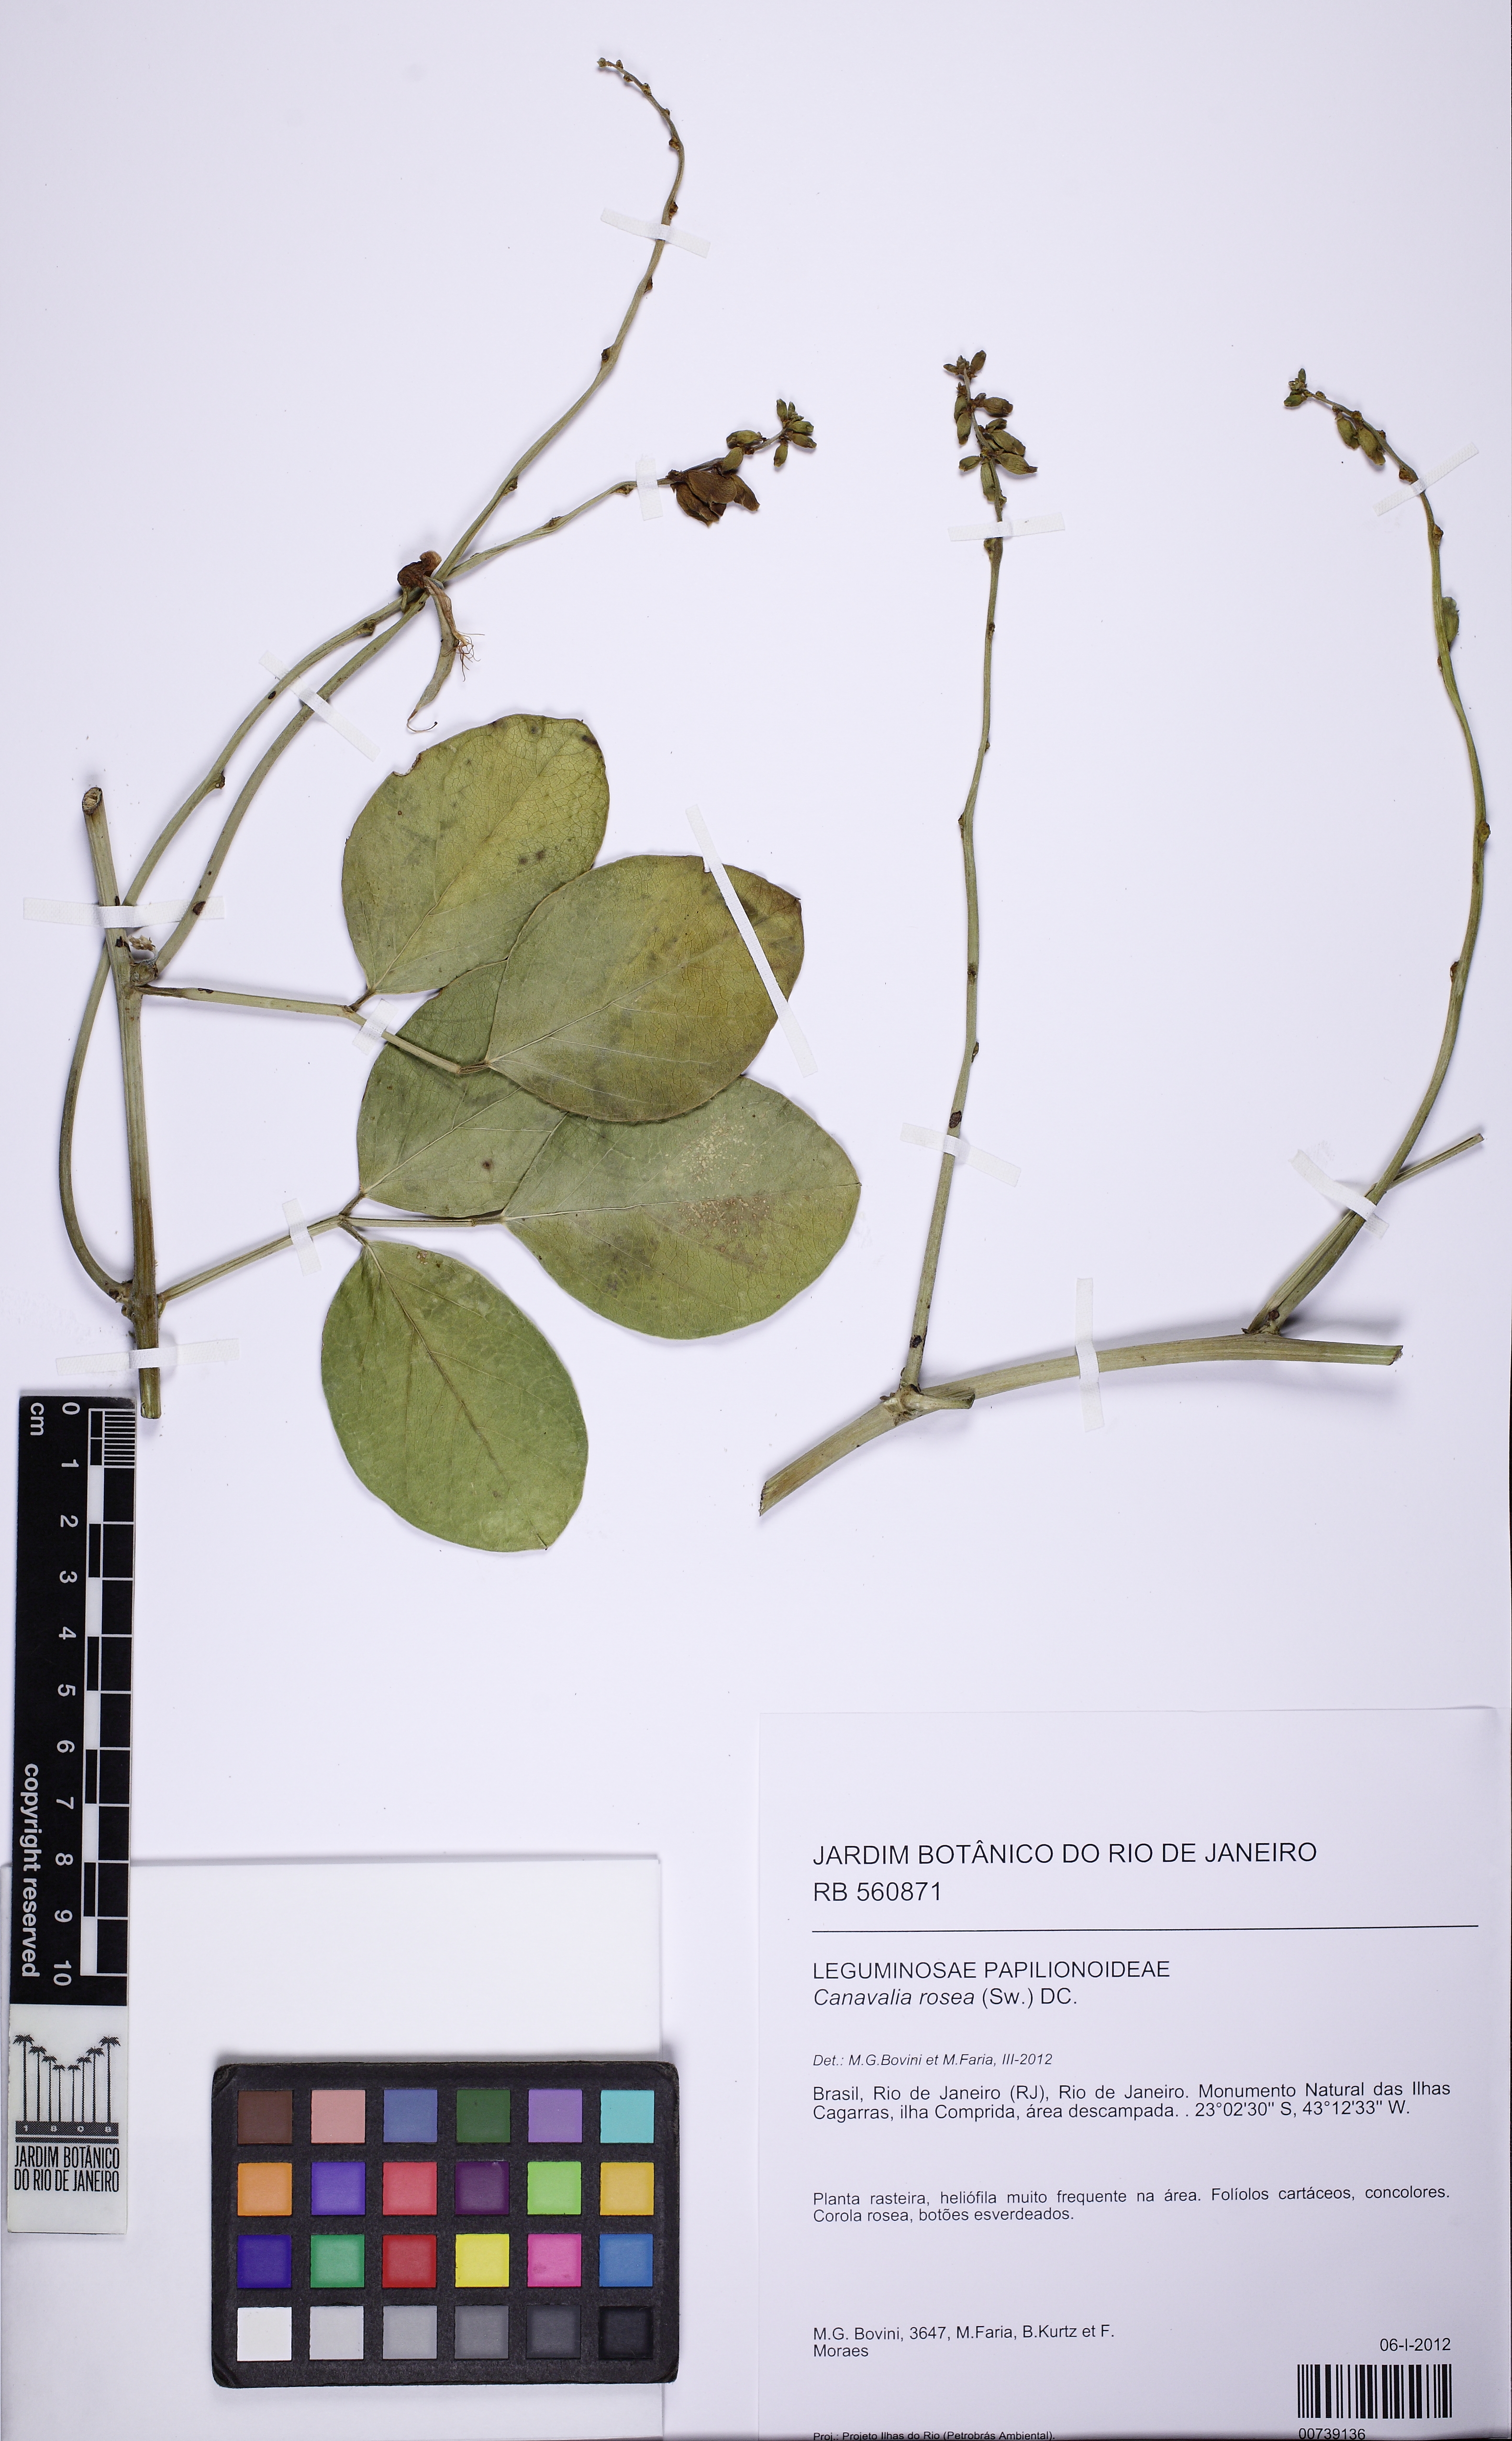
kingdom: Plantae
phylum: Tracheophyta
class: Magnoliopsida
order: Fabales
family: Fabaceae
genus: Canavalia
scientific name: Canavalia rosea
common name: Beach-bean
